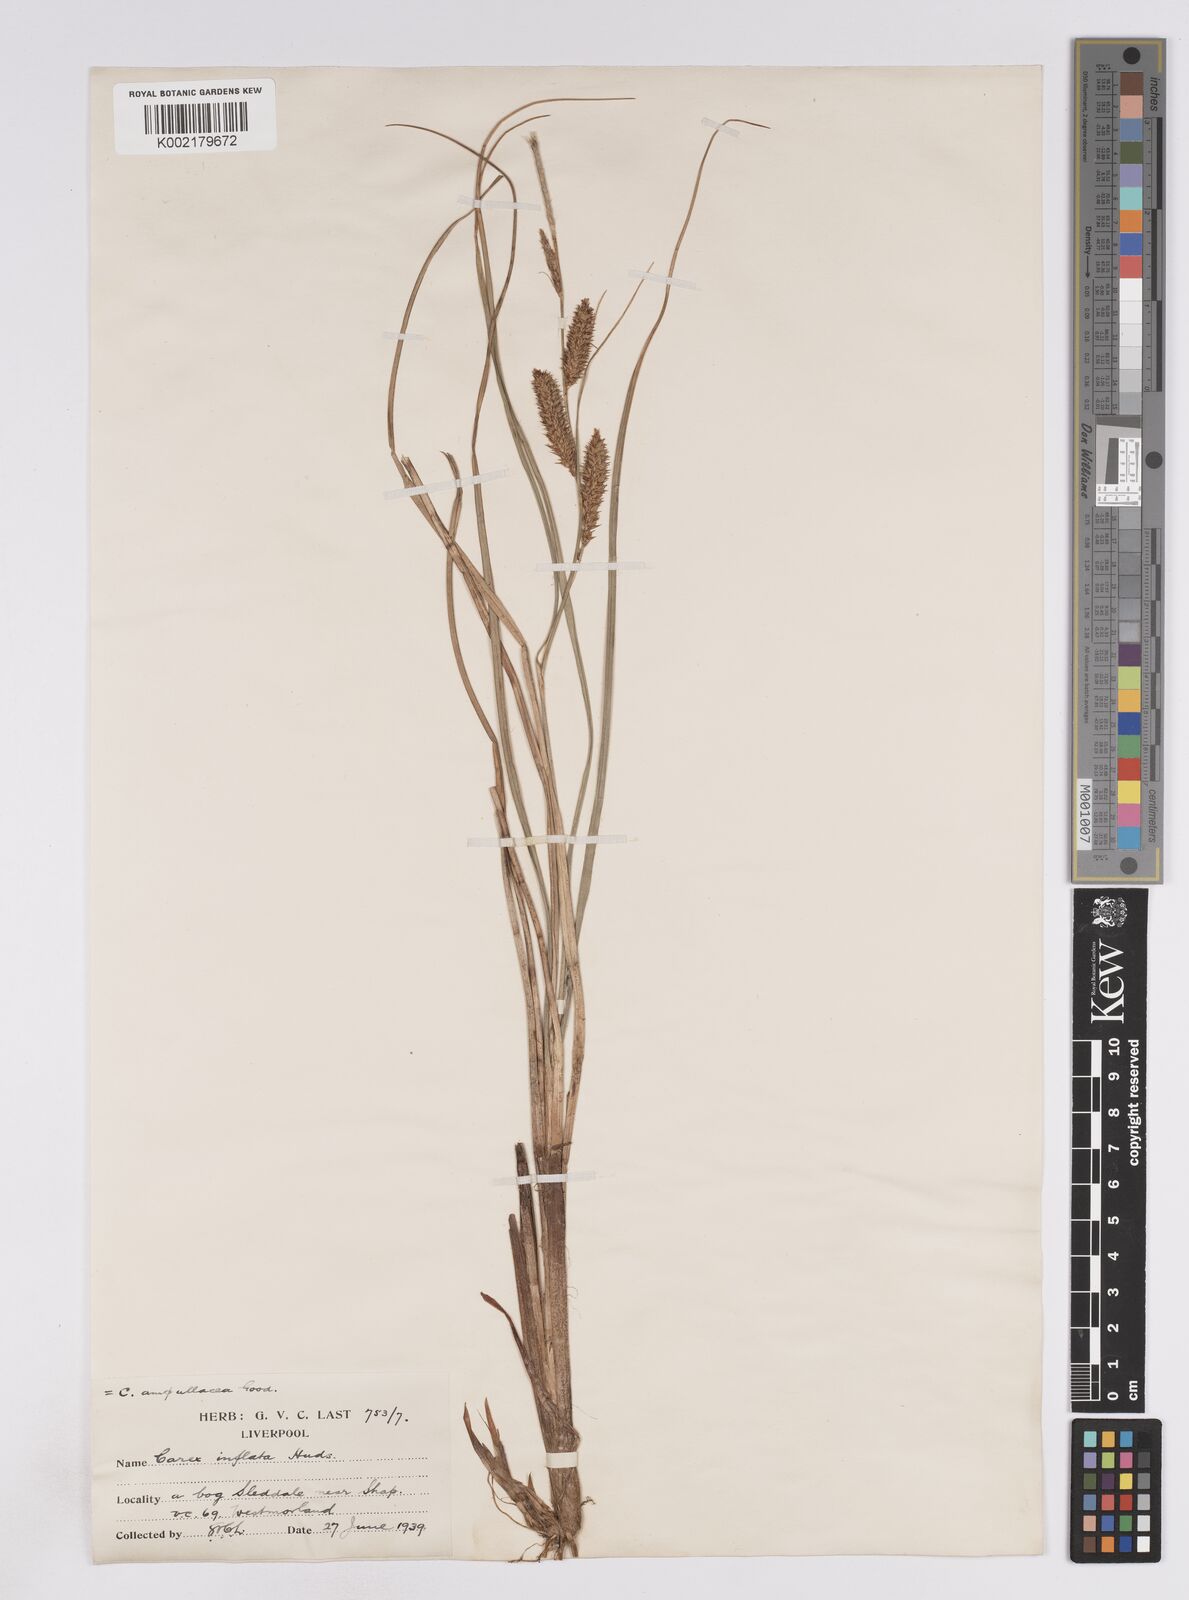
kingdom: Plantae
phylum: Tracheophyta
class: Liliopsida
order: Poales
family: Cyperaceae
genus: Carex
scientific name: Carex rostrata
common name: Bottle sedge
